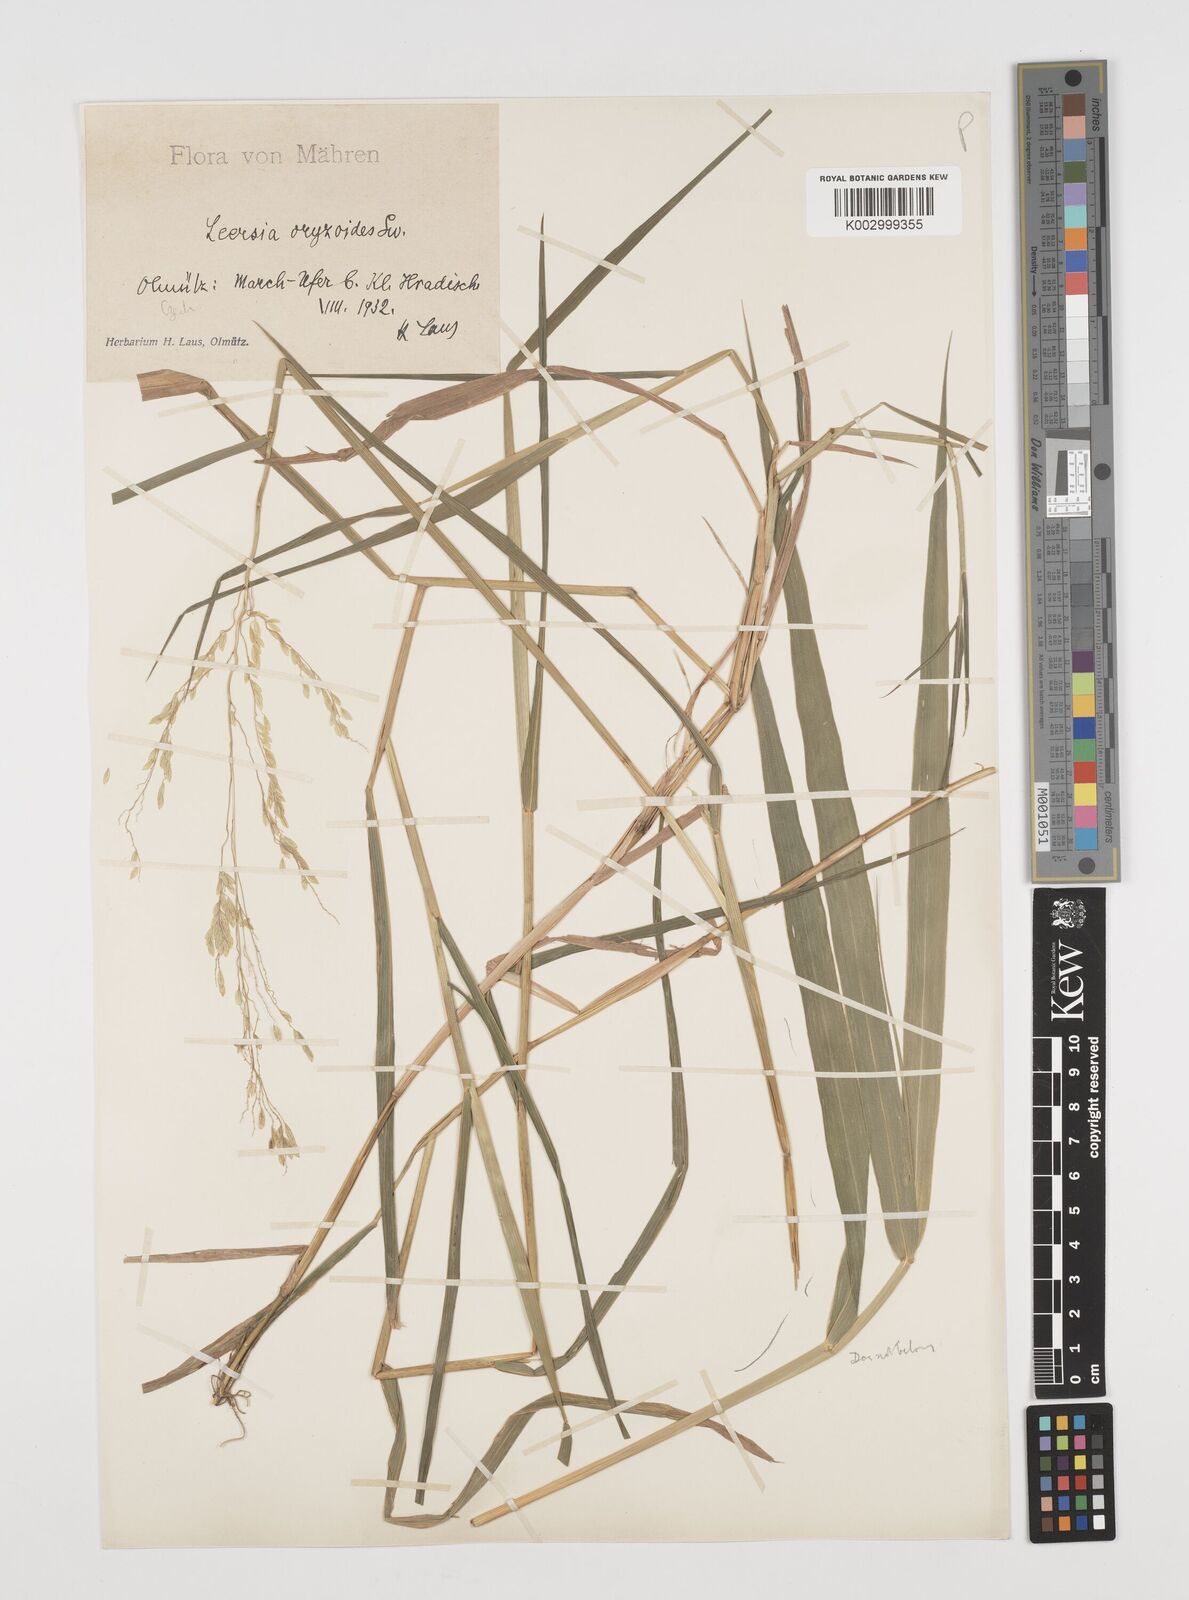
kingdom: Plantae
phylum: Tracheophyta
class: Liliopsida
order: Poales
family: Poaceae
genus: Leersia
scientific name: Leersia oryzoides
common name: Cut-grass
